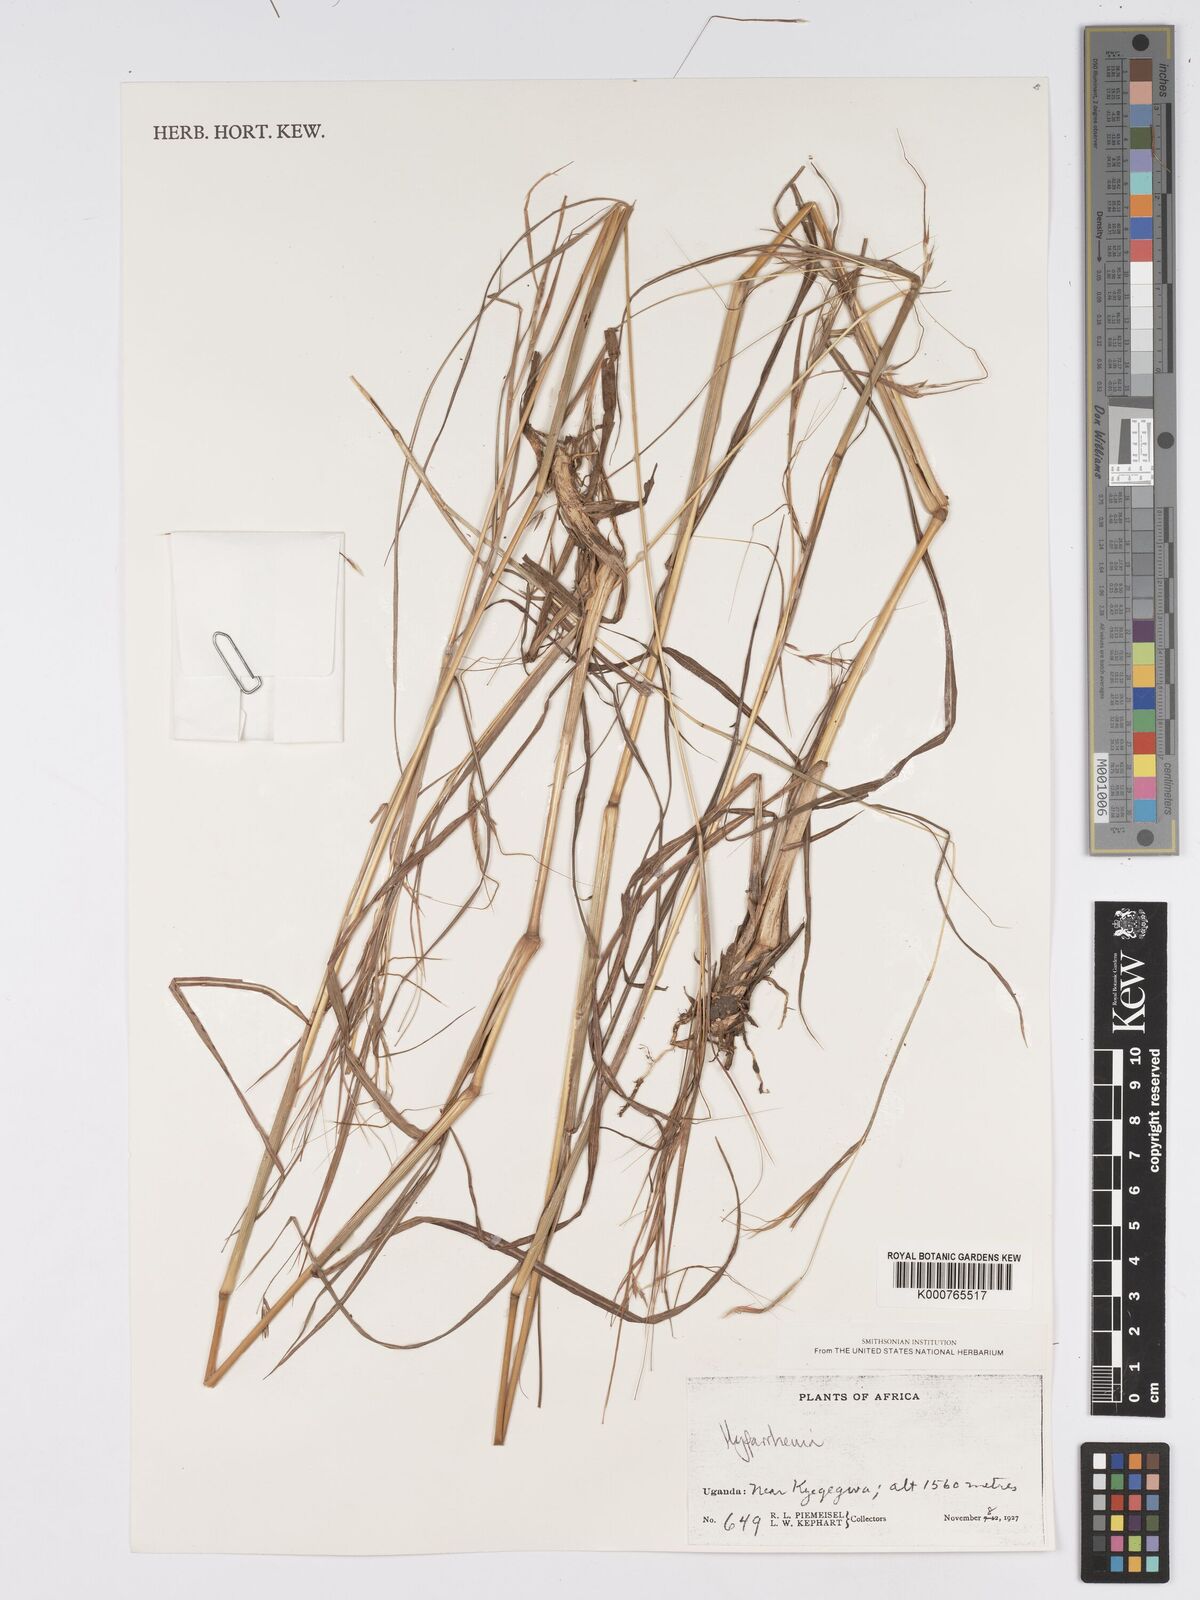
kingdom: Plantae
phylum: Tracheophyta
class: Liliopsida
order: Poales
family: Poaceae
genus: Hyparrhenia
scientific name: Hyparrhenia filipendula
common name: Tambookie grass
